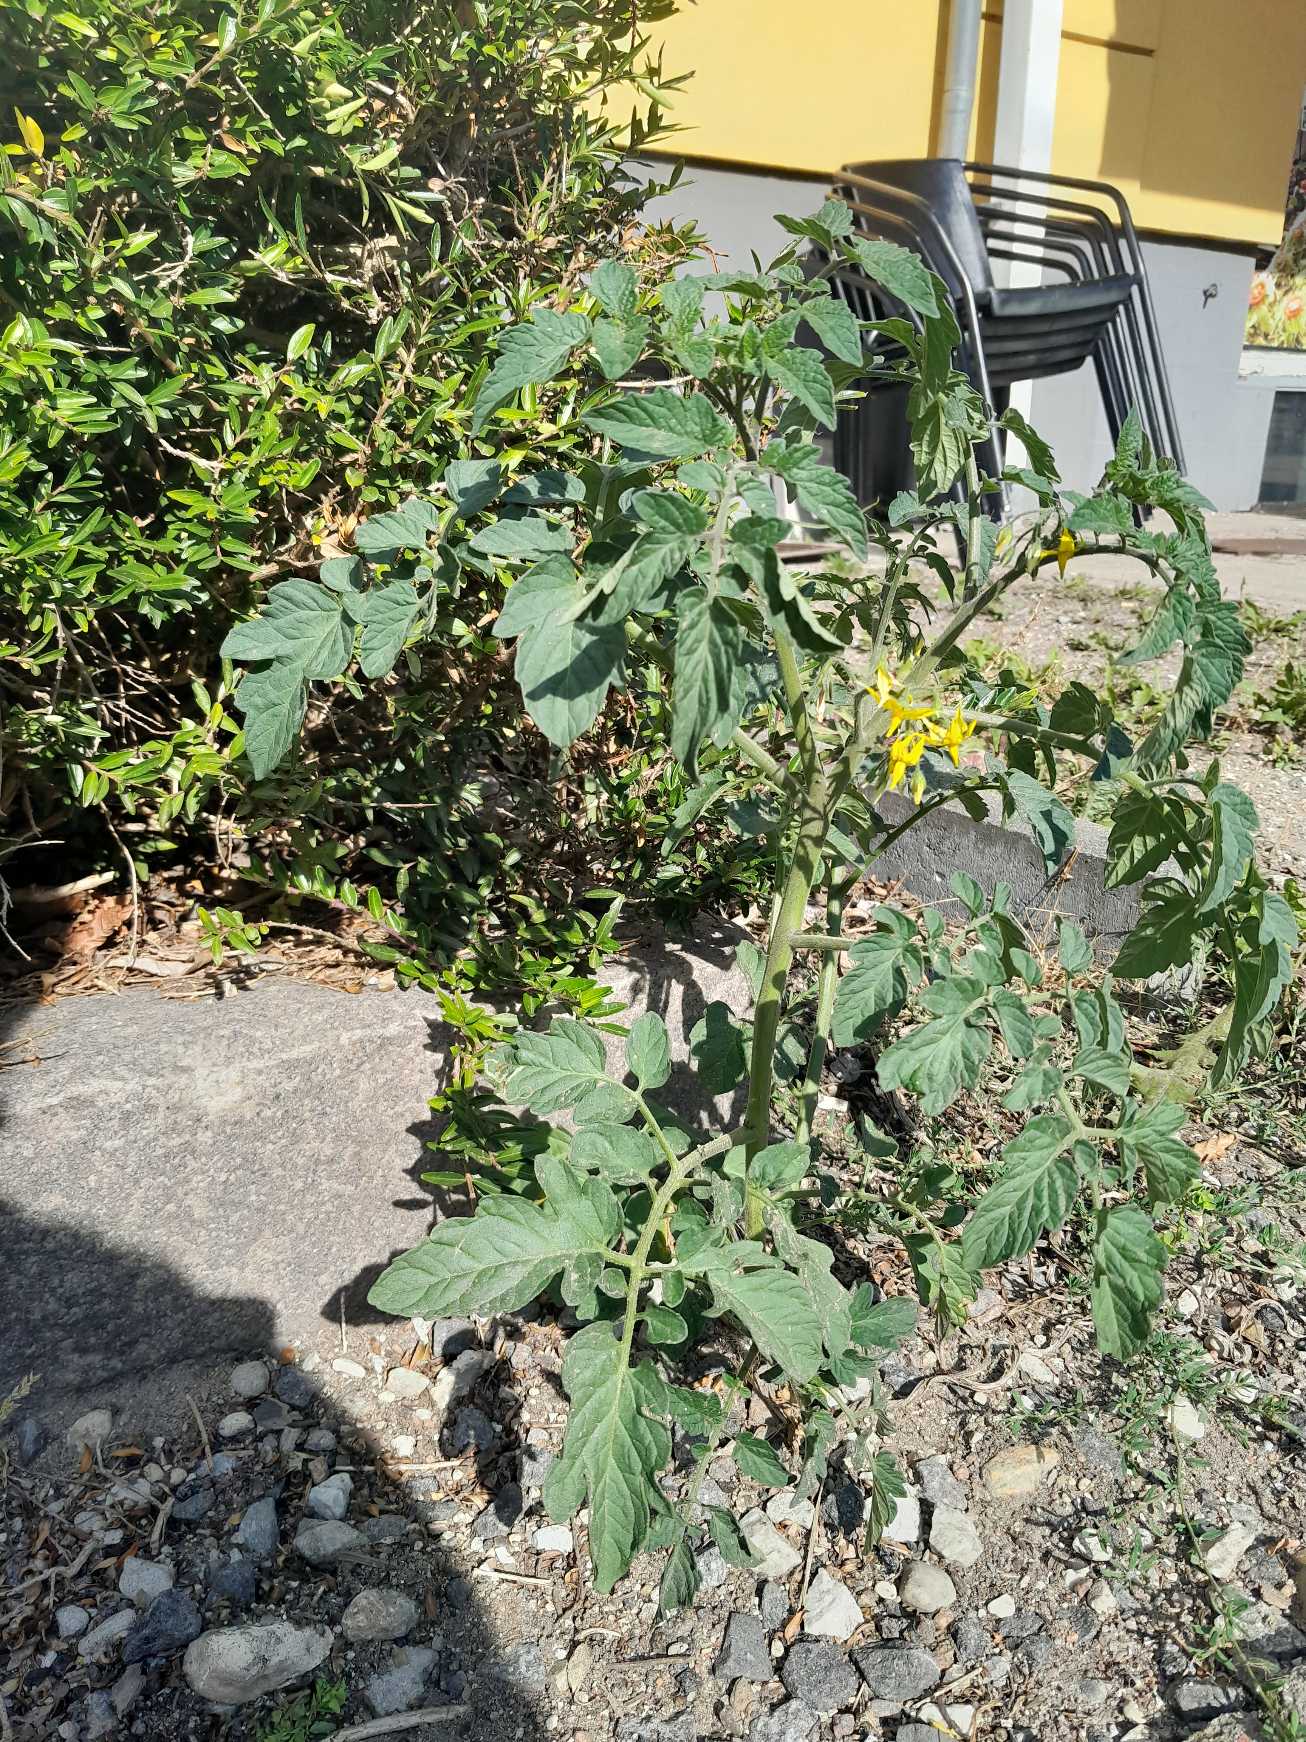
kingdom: Plantae
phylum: Tracheophyta
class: Magnoliopsida
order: Solanales
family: Solanaceae
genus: Solanum
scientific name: Solanum lycopersicum
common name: Tomat
